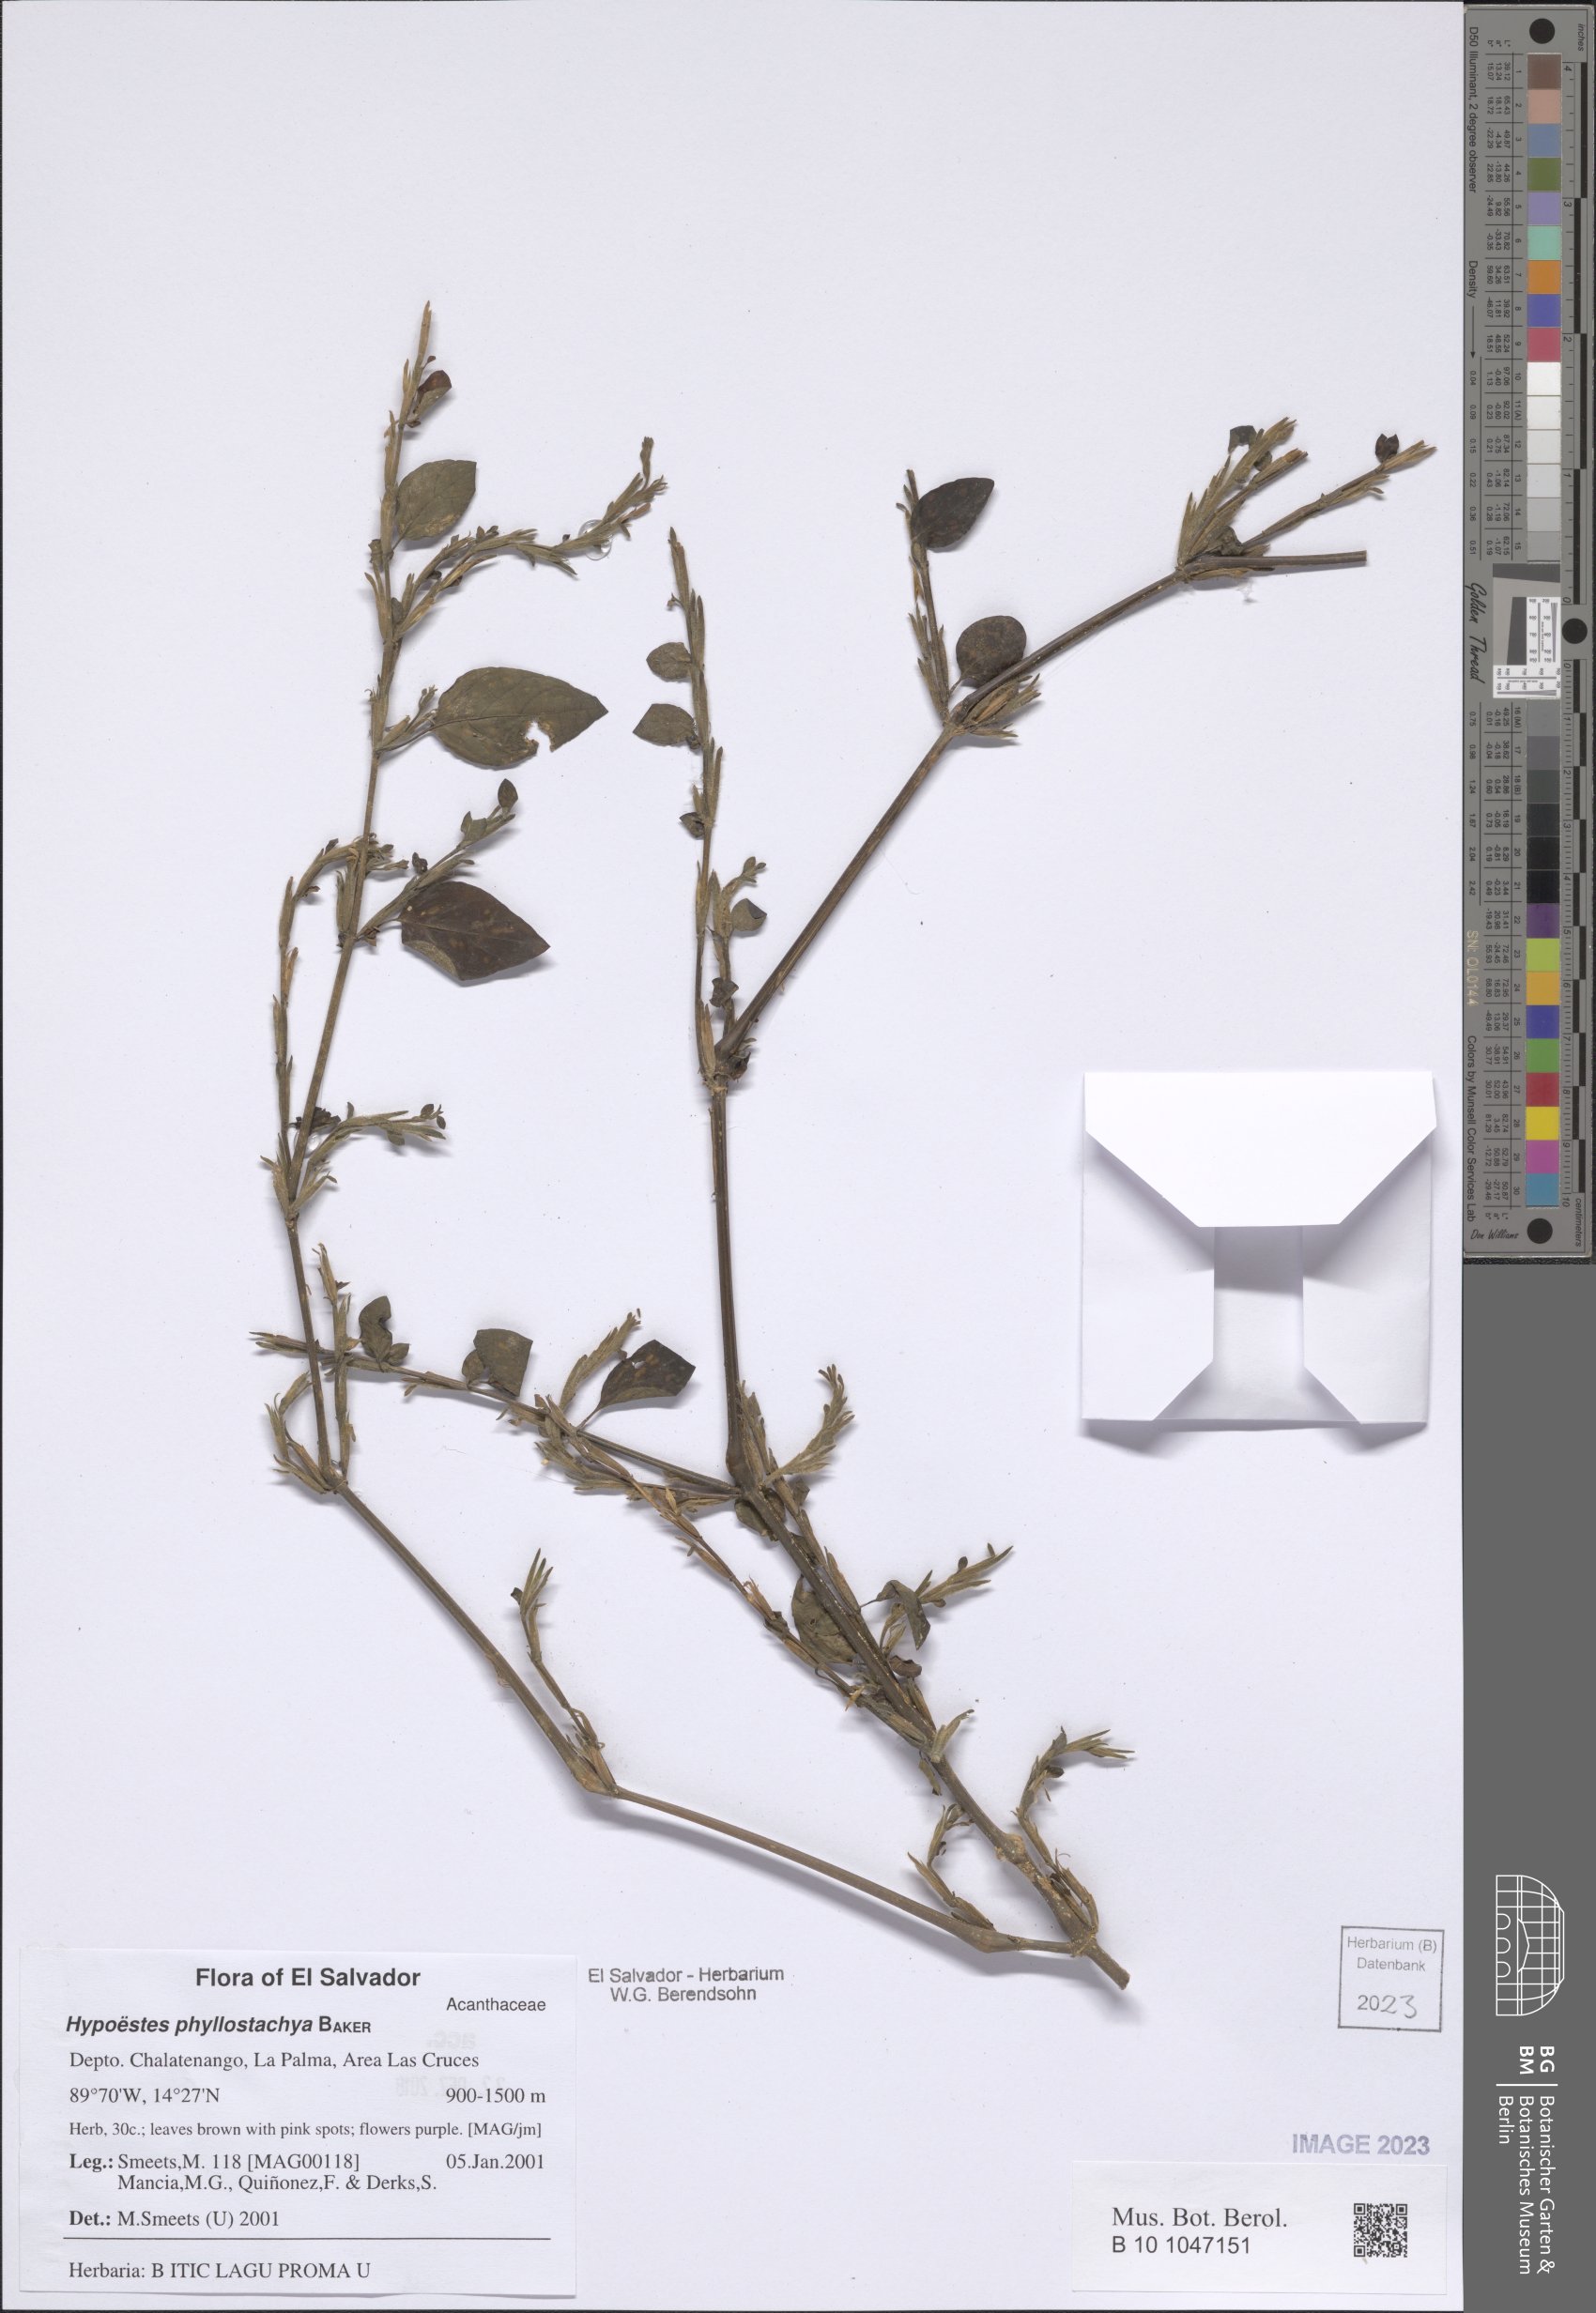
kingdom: Plantae
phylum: Tracheophyta
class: Magnoliopsida
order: Lamiales
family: Acanthaceae
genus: Hypoestes
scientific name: Hypoestes phyllostachya
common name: Polkadot-plant
